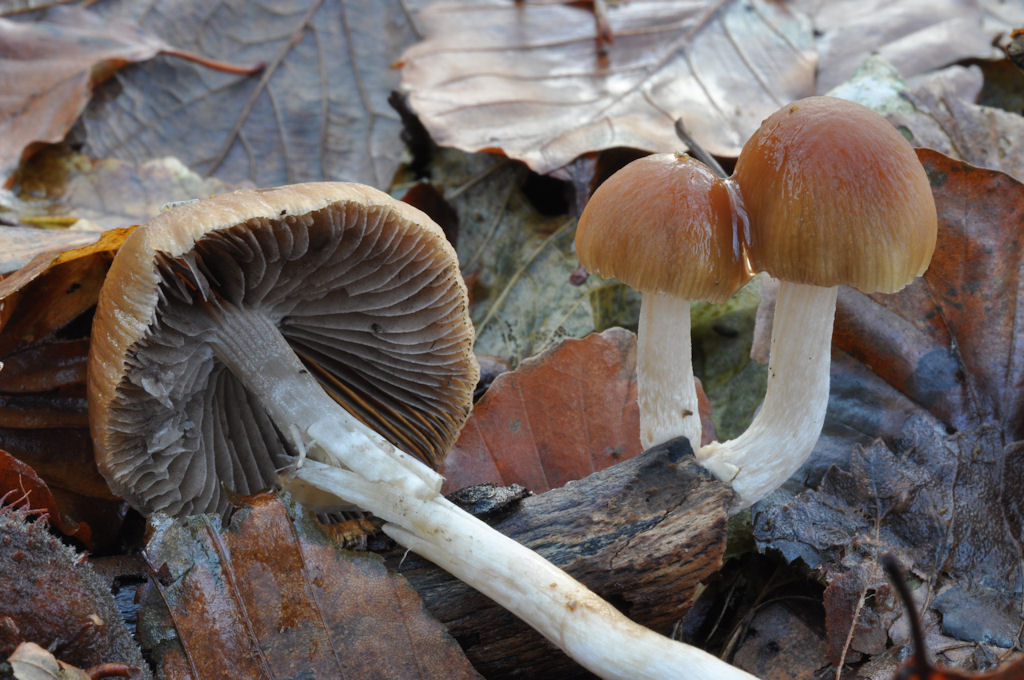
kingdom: Fungi
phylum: Basidiomycota
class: Agaricomycetes
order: Agaricales
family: Psathyrellaceae
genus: Psathyrella
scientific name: Psathyrella fusca
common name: gråbladet mørkhat
